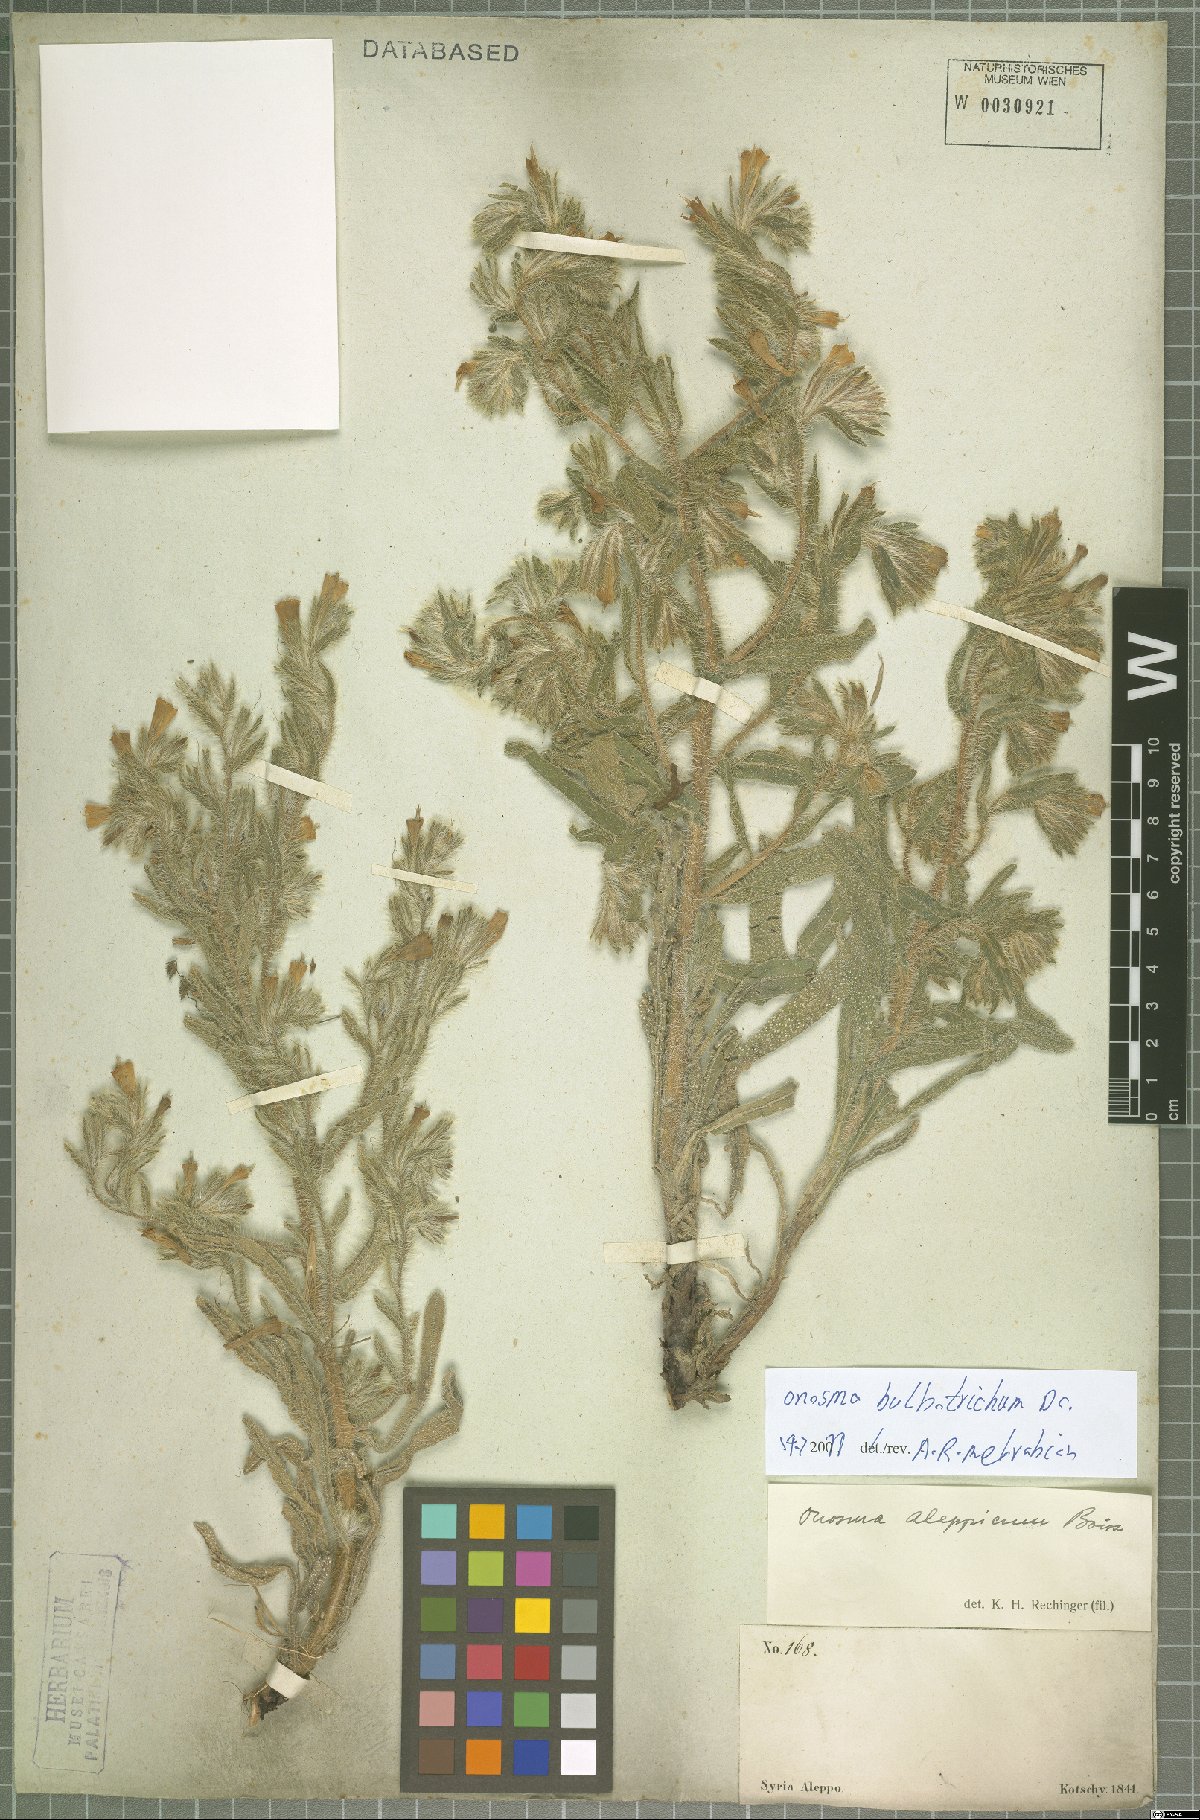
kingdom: Plantae
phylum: Tracheophyta
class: Magnoliopsida
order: Boraginales
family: Boraginaceae
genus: Onosma
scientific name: Onosma bulbotricha
